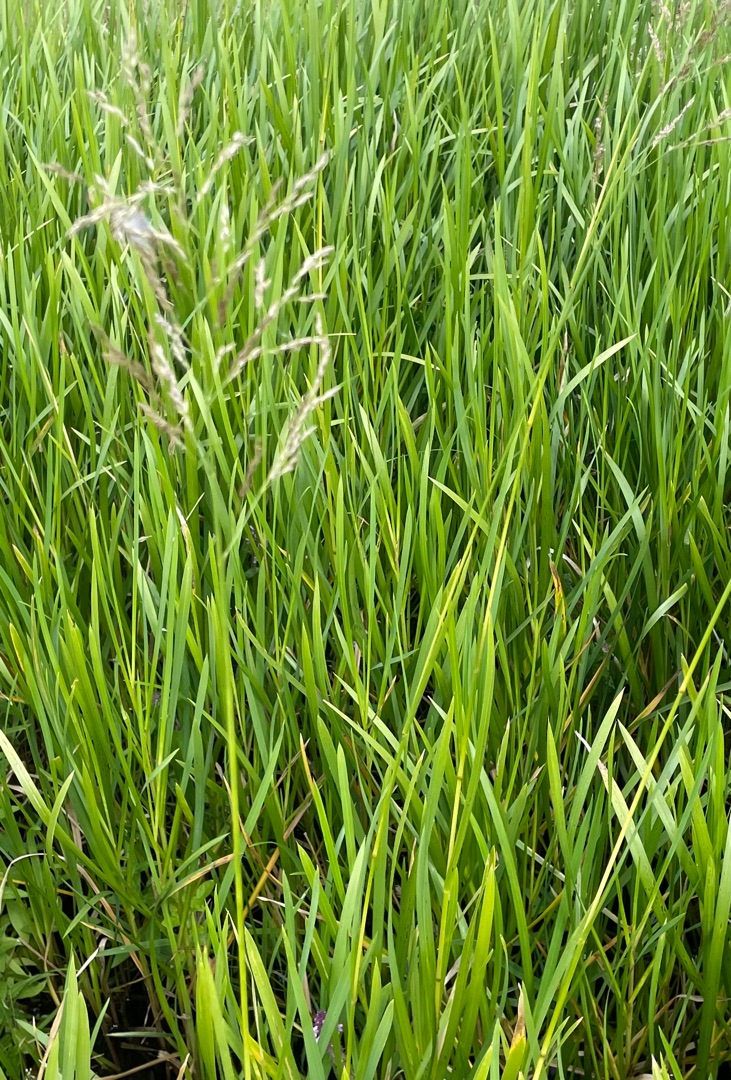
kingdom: Plantae
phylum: Tracheophyta
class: Liliopsida
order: Poales
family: Poaceae
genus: Glyceria
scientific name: Glyceria maxima
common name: Høj sødgræs
